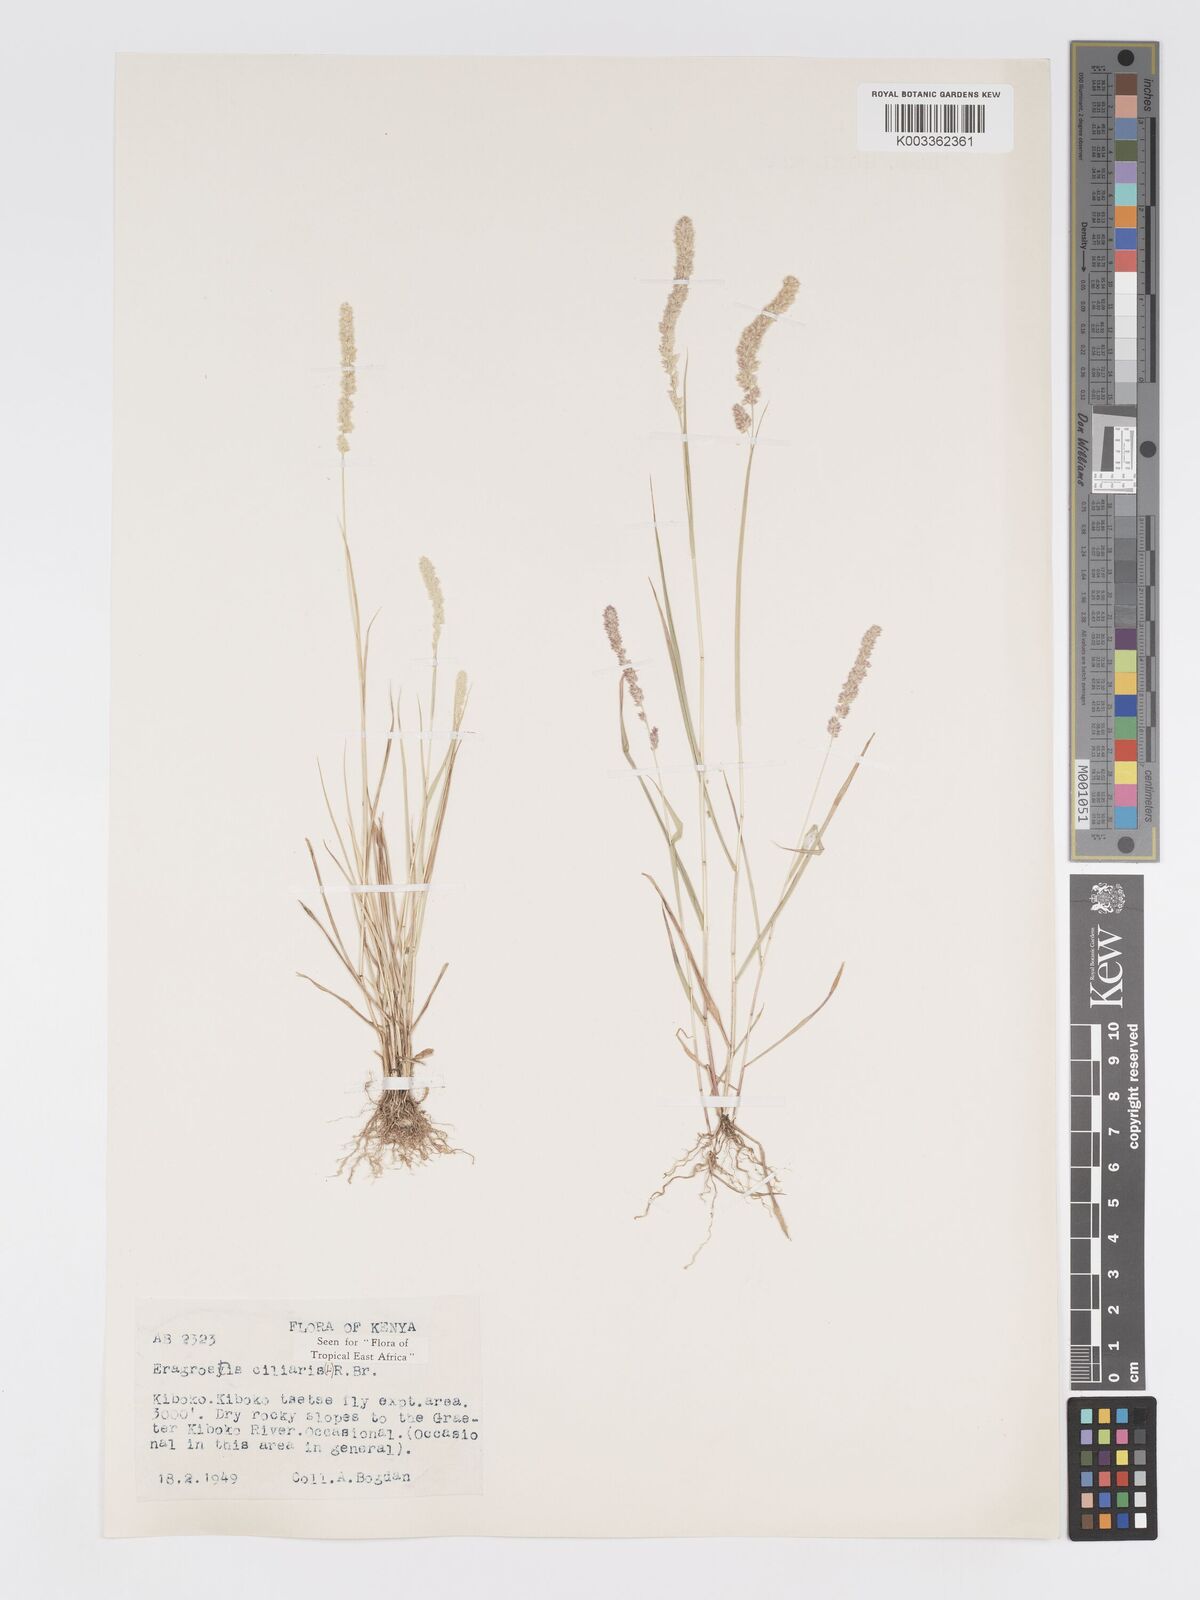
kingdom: Plantae
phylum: Tracheophyta
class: Liliopsida
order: Poales
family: Poaceae
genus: Eragrostis
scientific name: Eragrostis ciliaris
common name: Gophertail lovegrass
